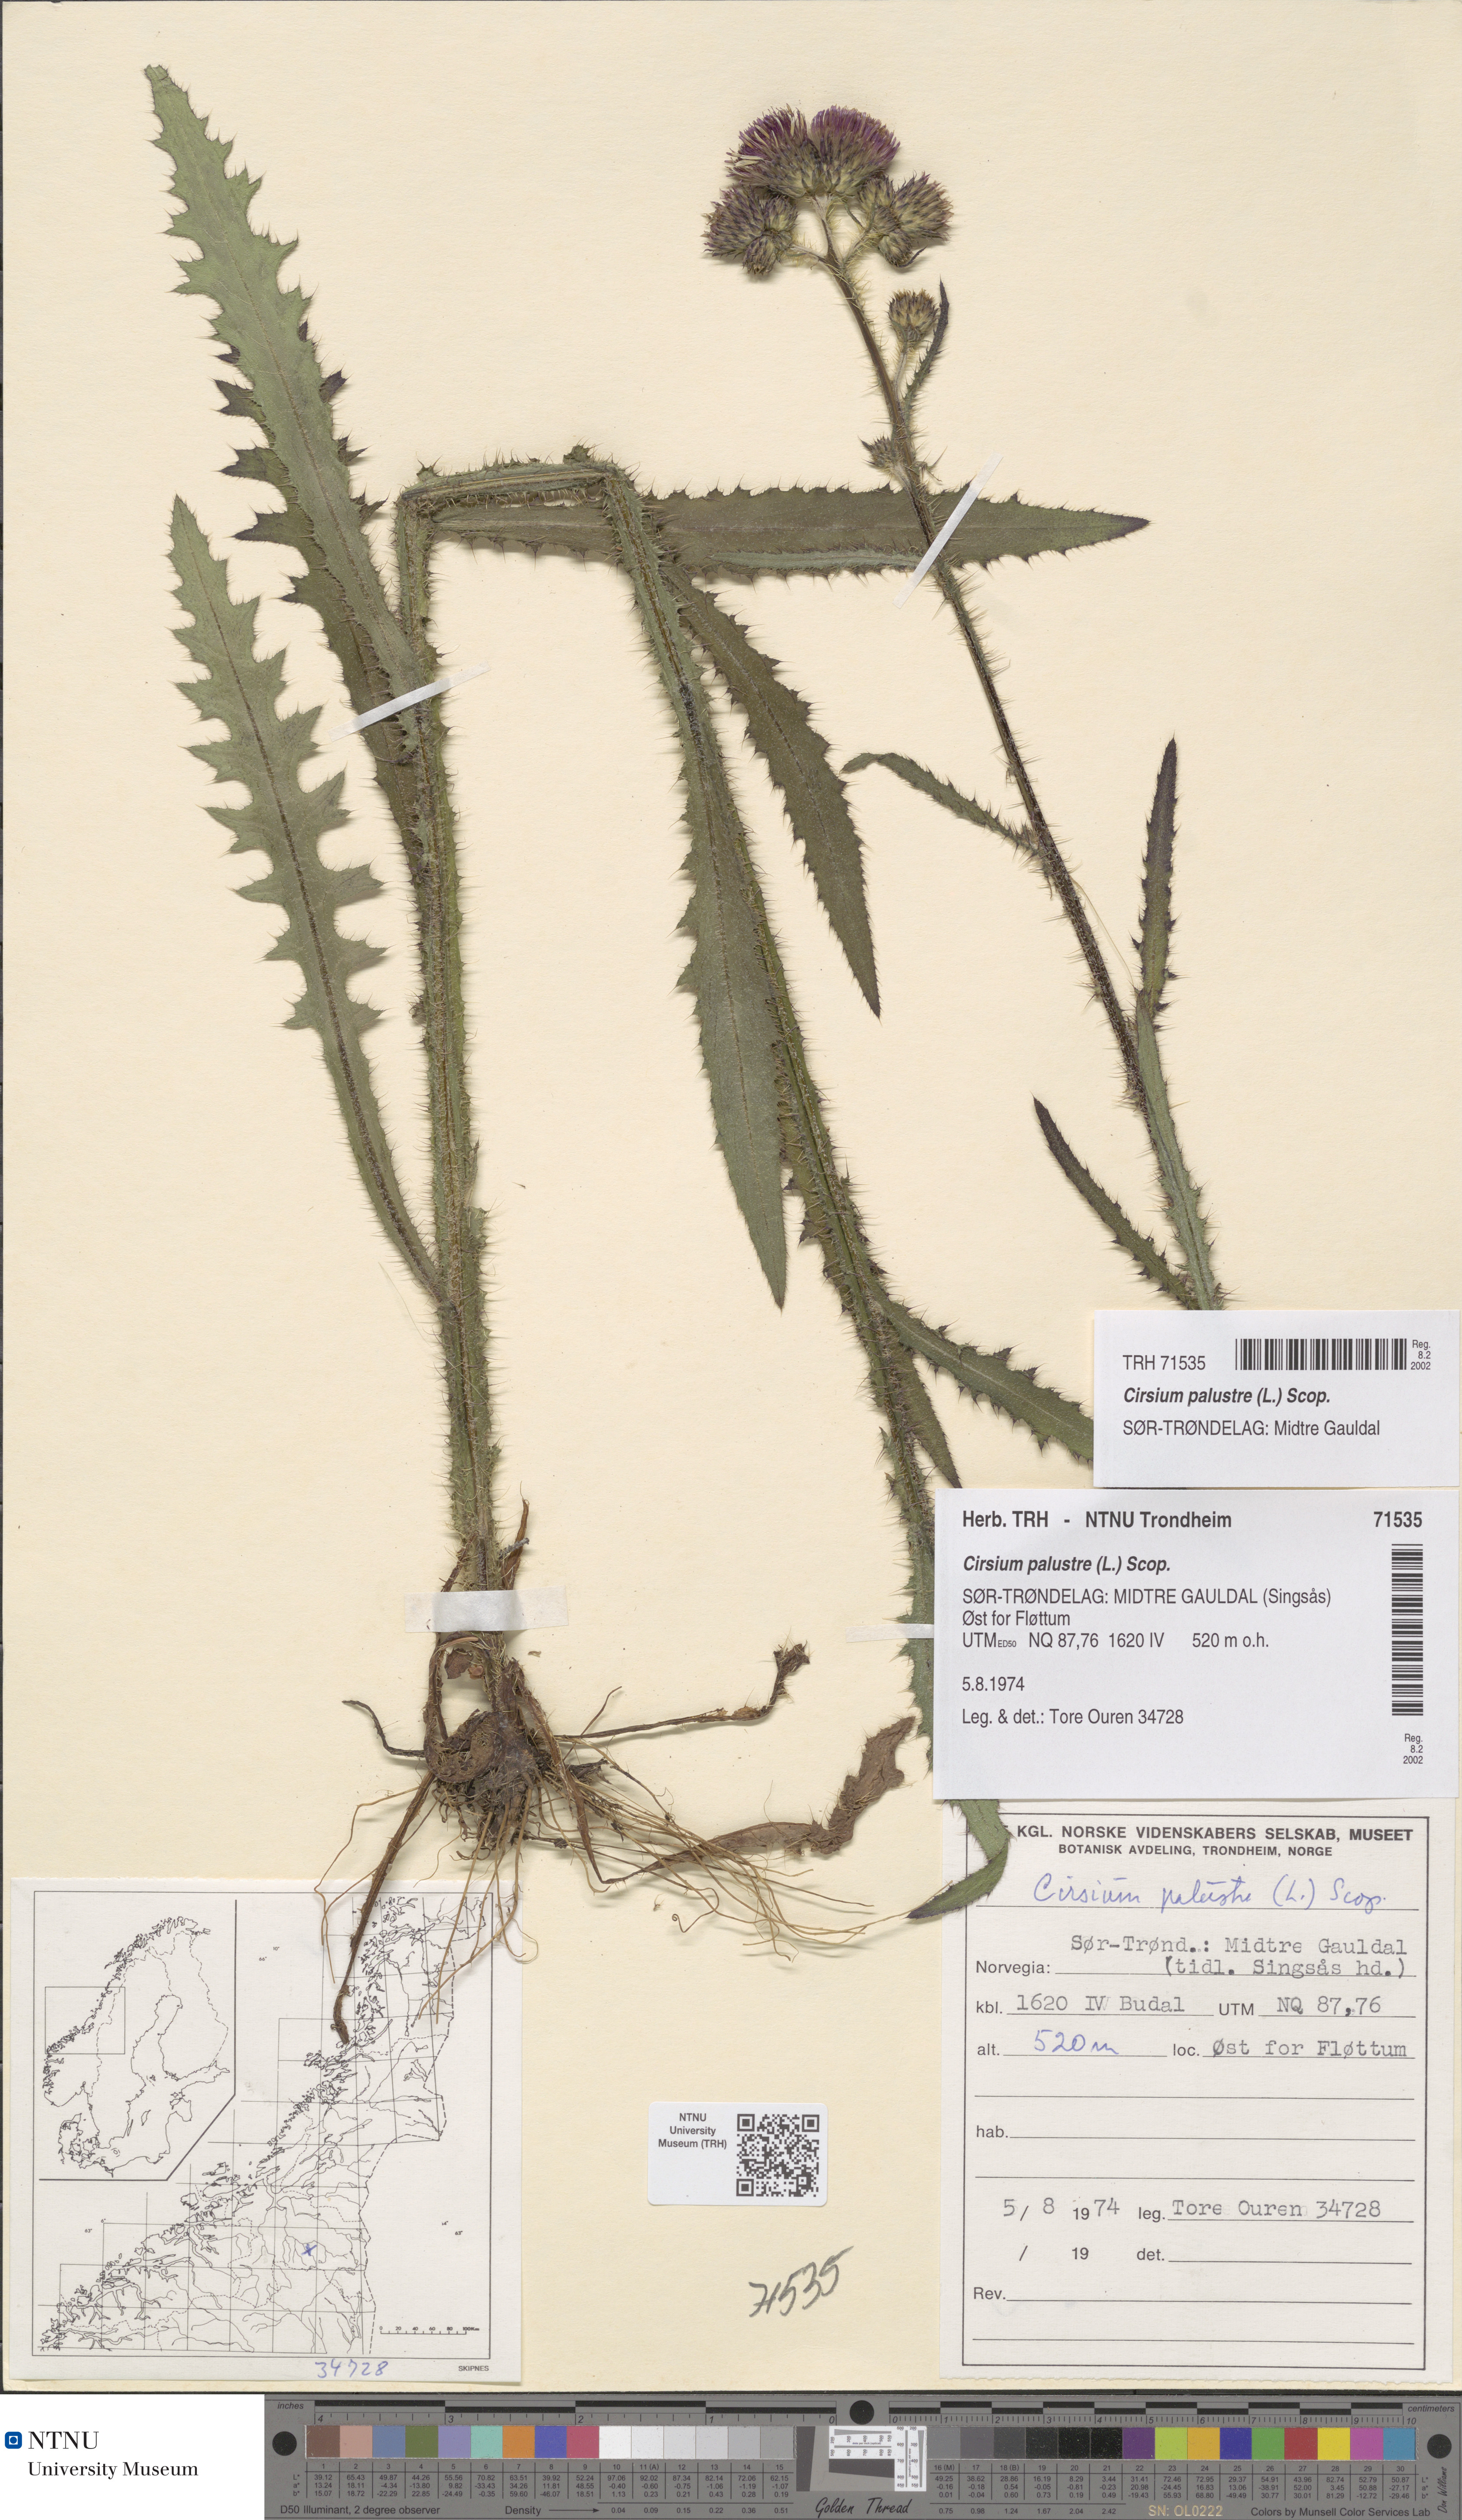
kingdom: Plantae
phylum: Tracheophyta
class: Magnoliopsida
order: Asterales
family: Asteraceae
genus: Cirsium
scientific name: Cirsium palustre
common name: Marsh thistle
